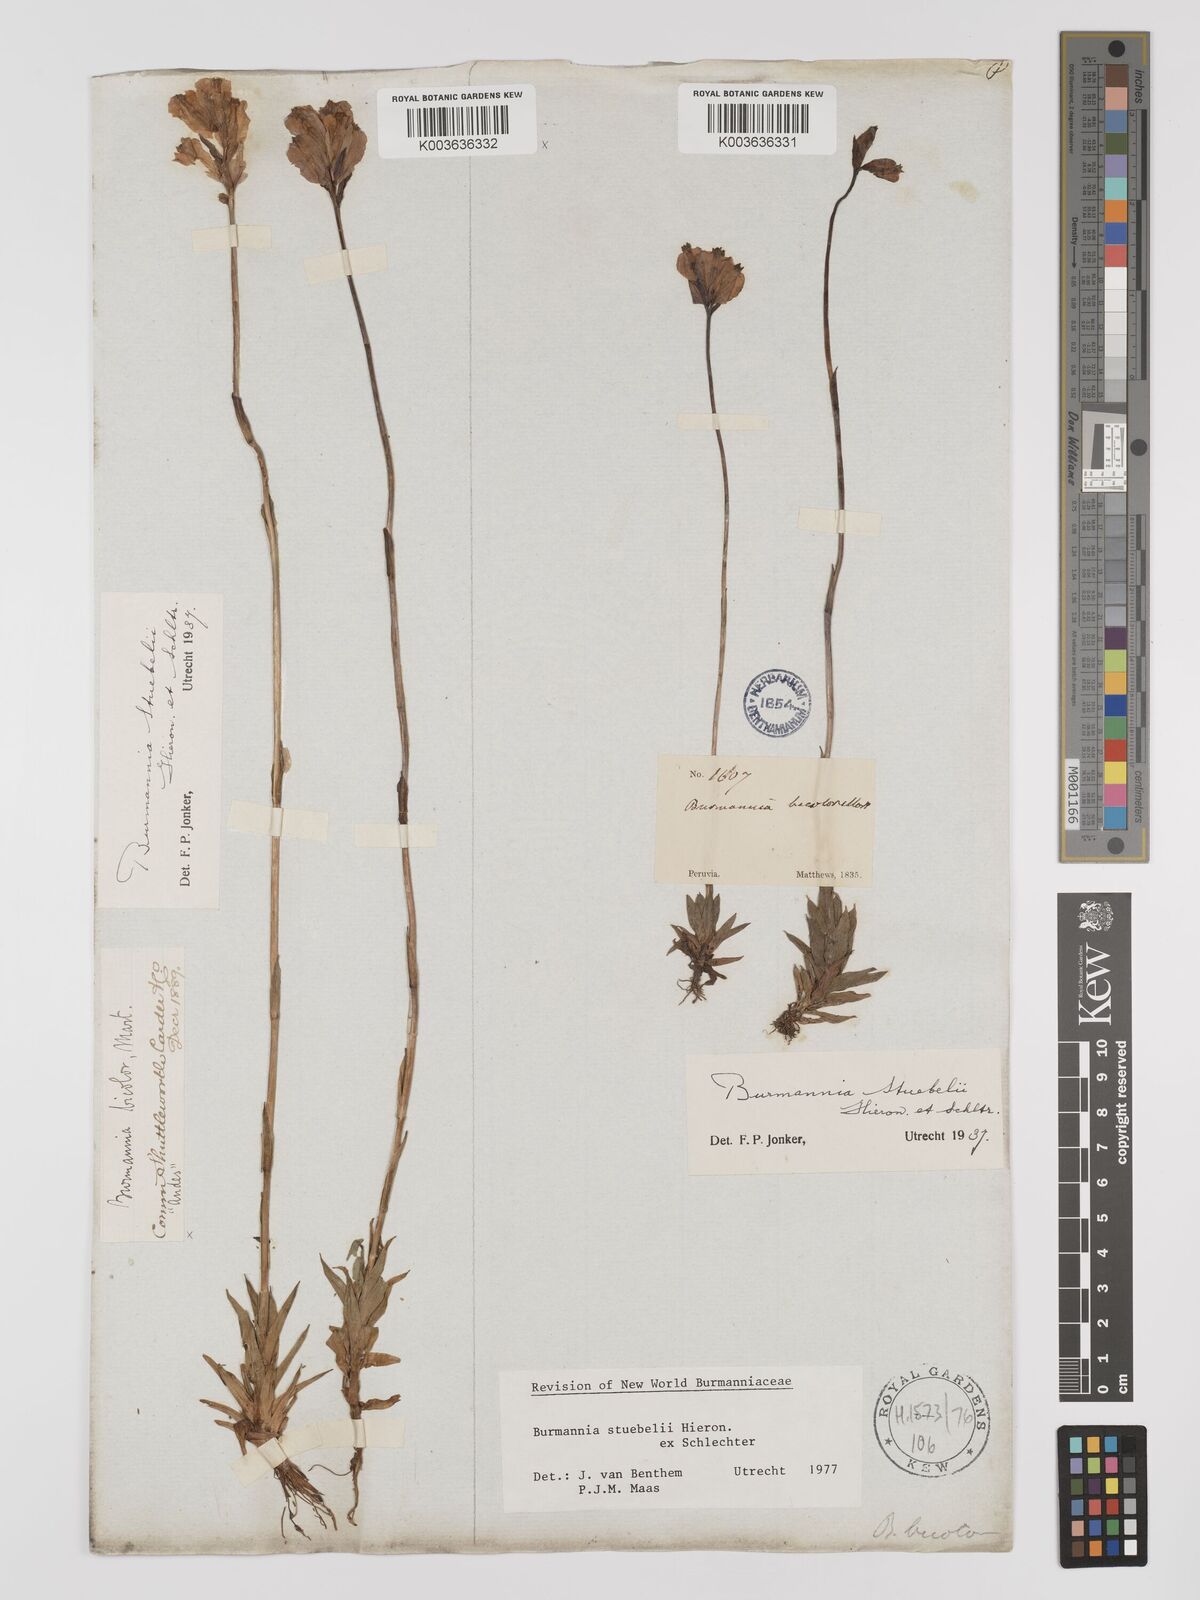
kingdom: Plantae
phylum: Tracheophyta
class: Liliopsida
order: Dioscoreales
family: Burmanniaceae
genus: Burmannia
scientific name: Burmannia stuebelii
